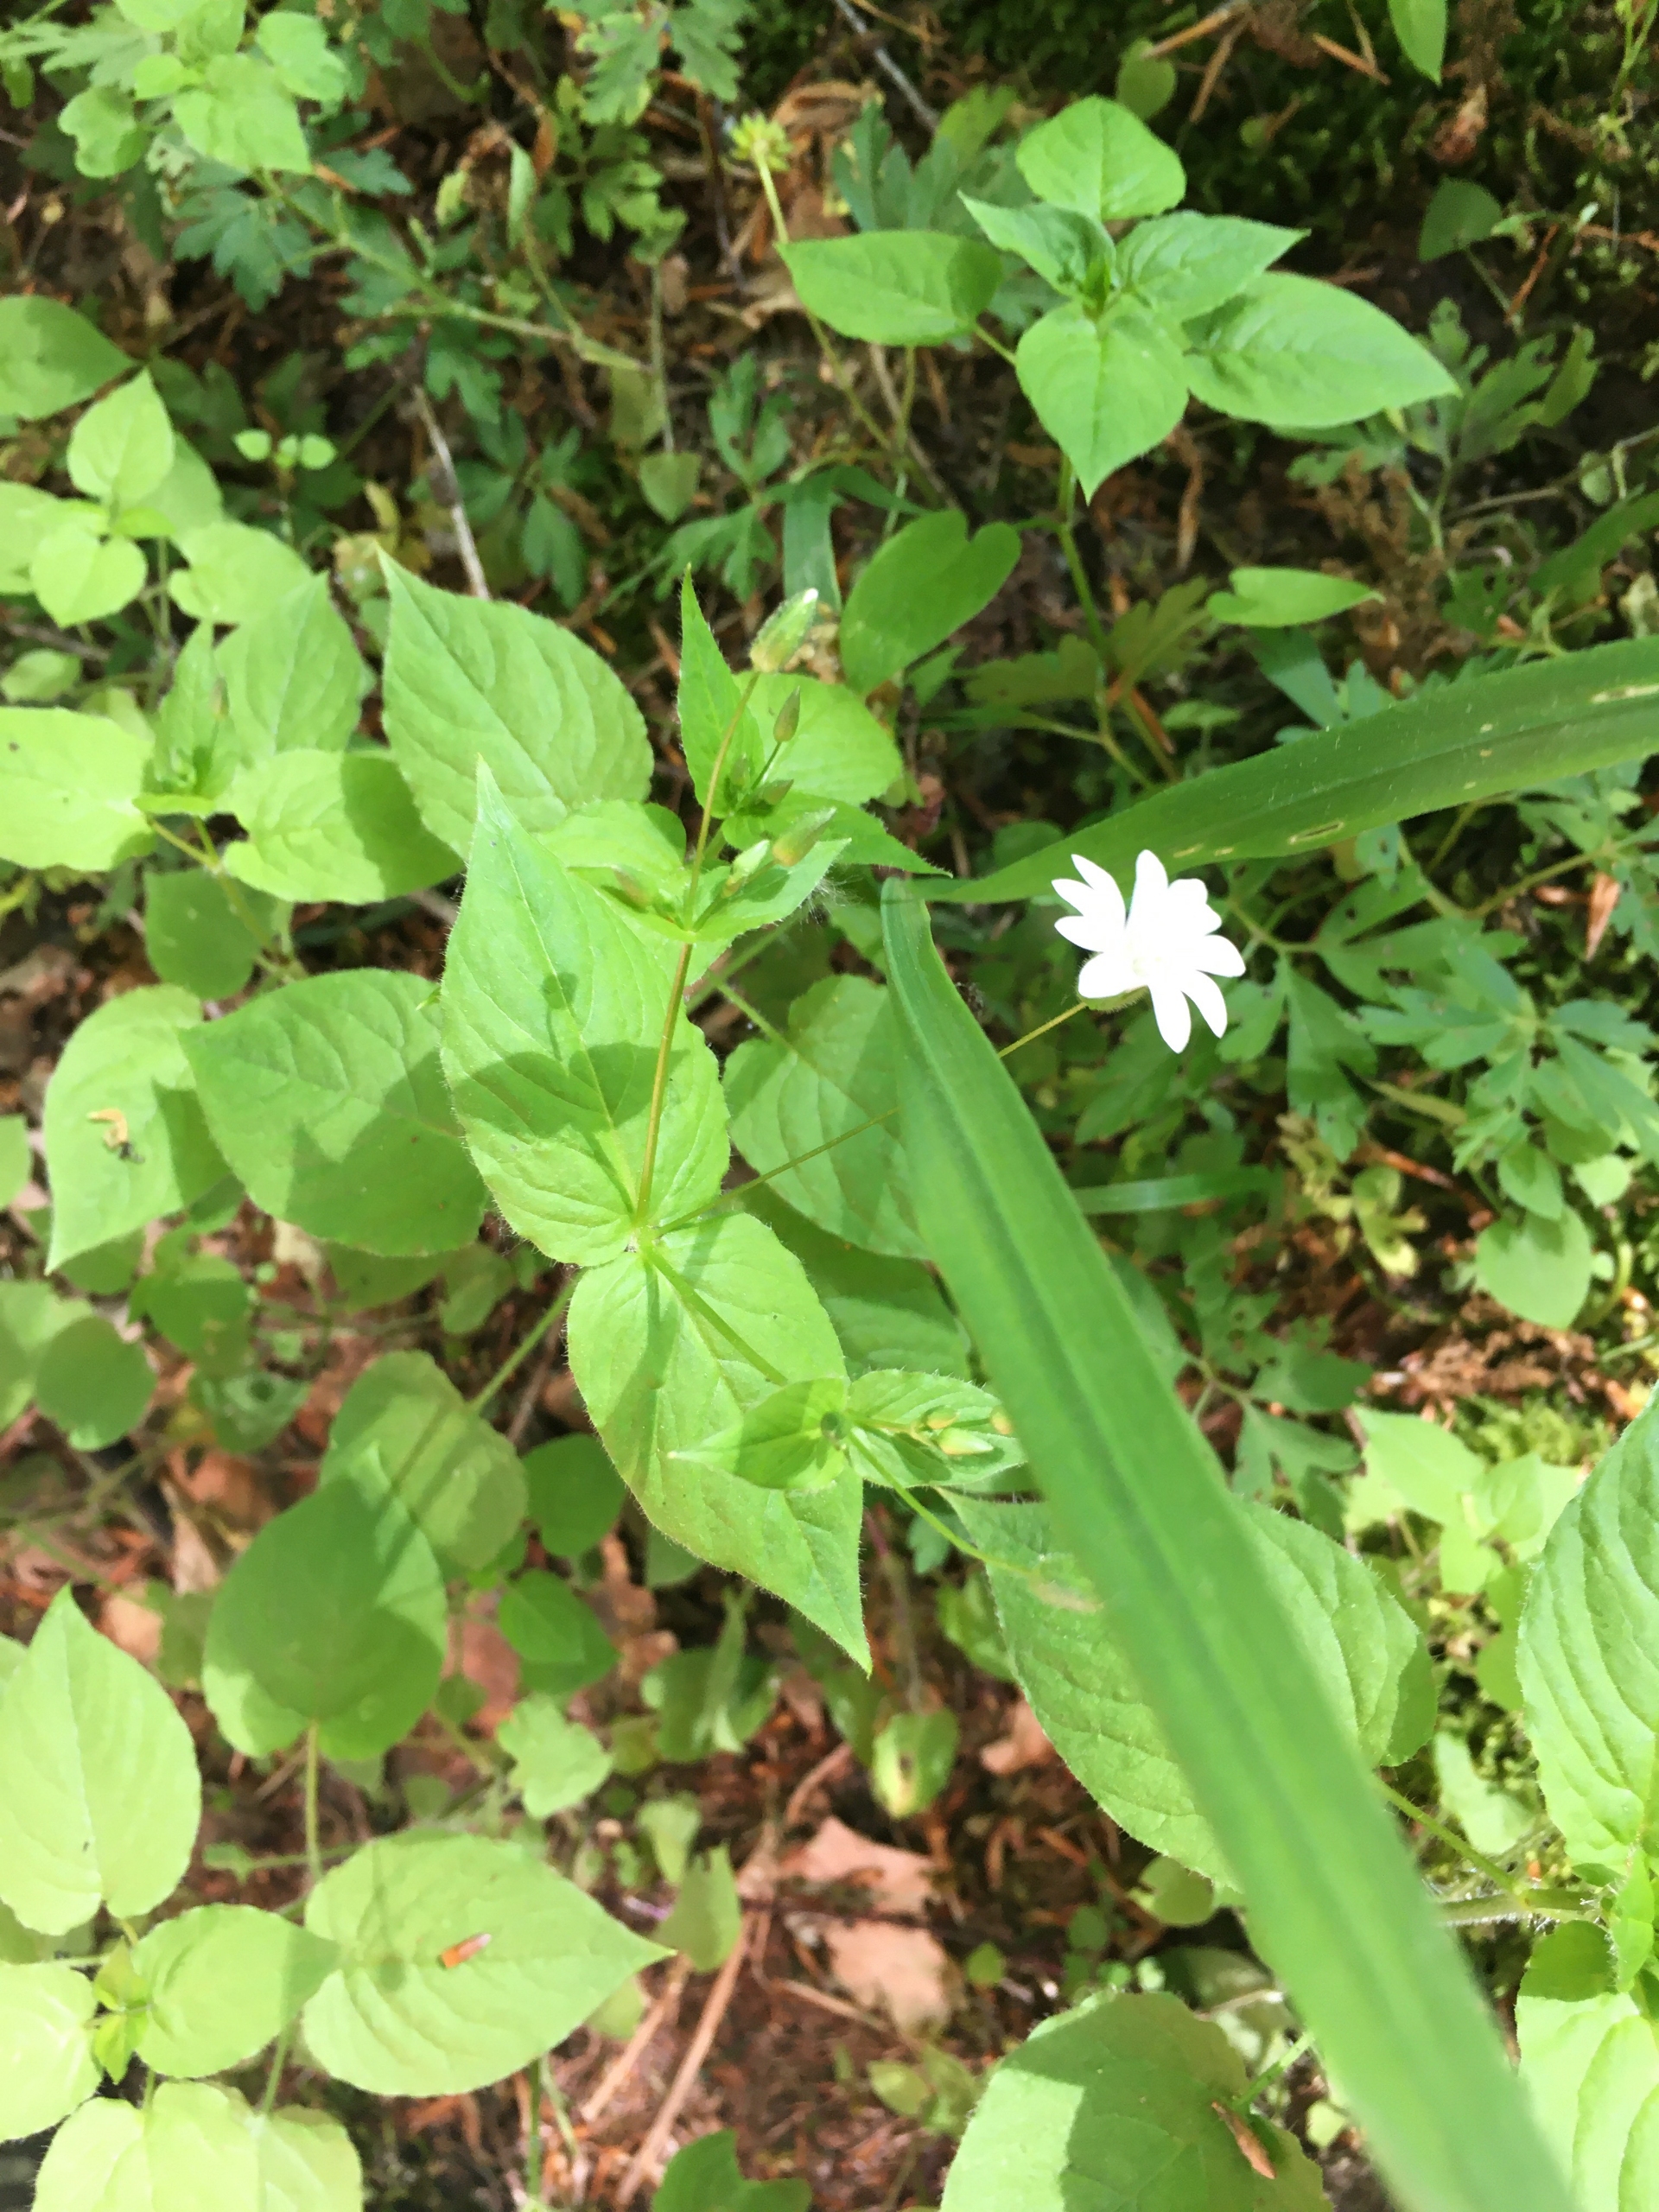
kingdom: Plantae
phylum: Tracheophyta
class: Magnoliopsida
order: Caryophyllales
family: Caryophyllaceae
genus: Stellaria
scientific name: Stellaria glochidisperma
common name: Sydlig lund-fladstjerne
